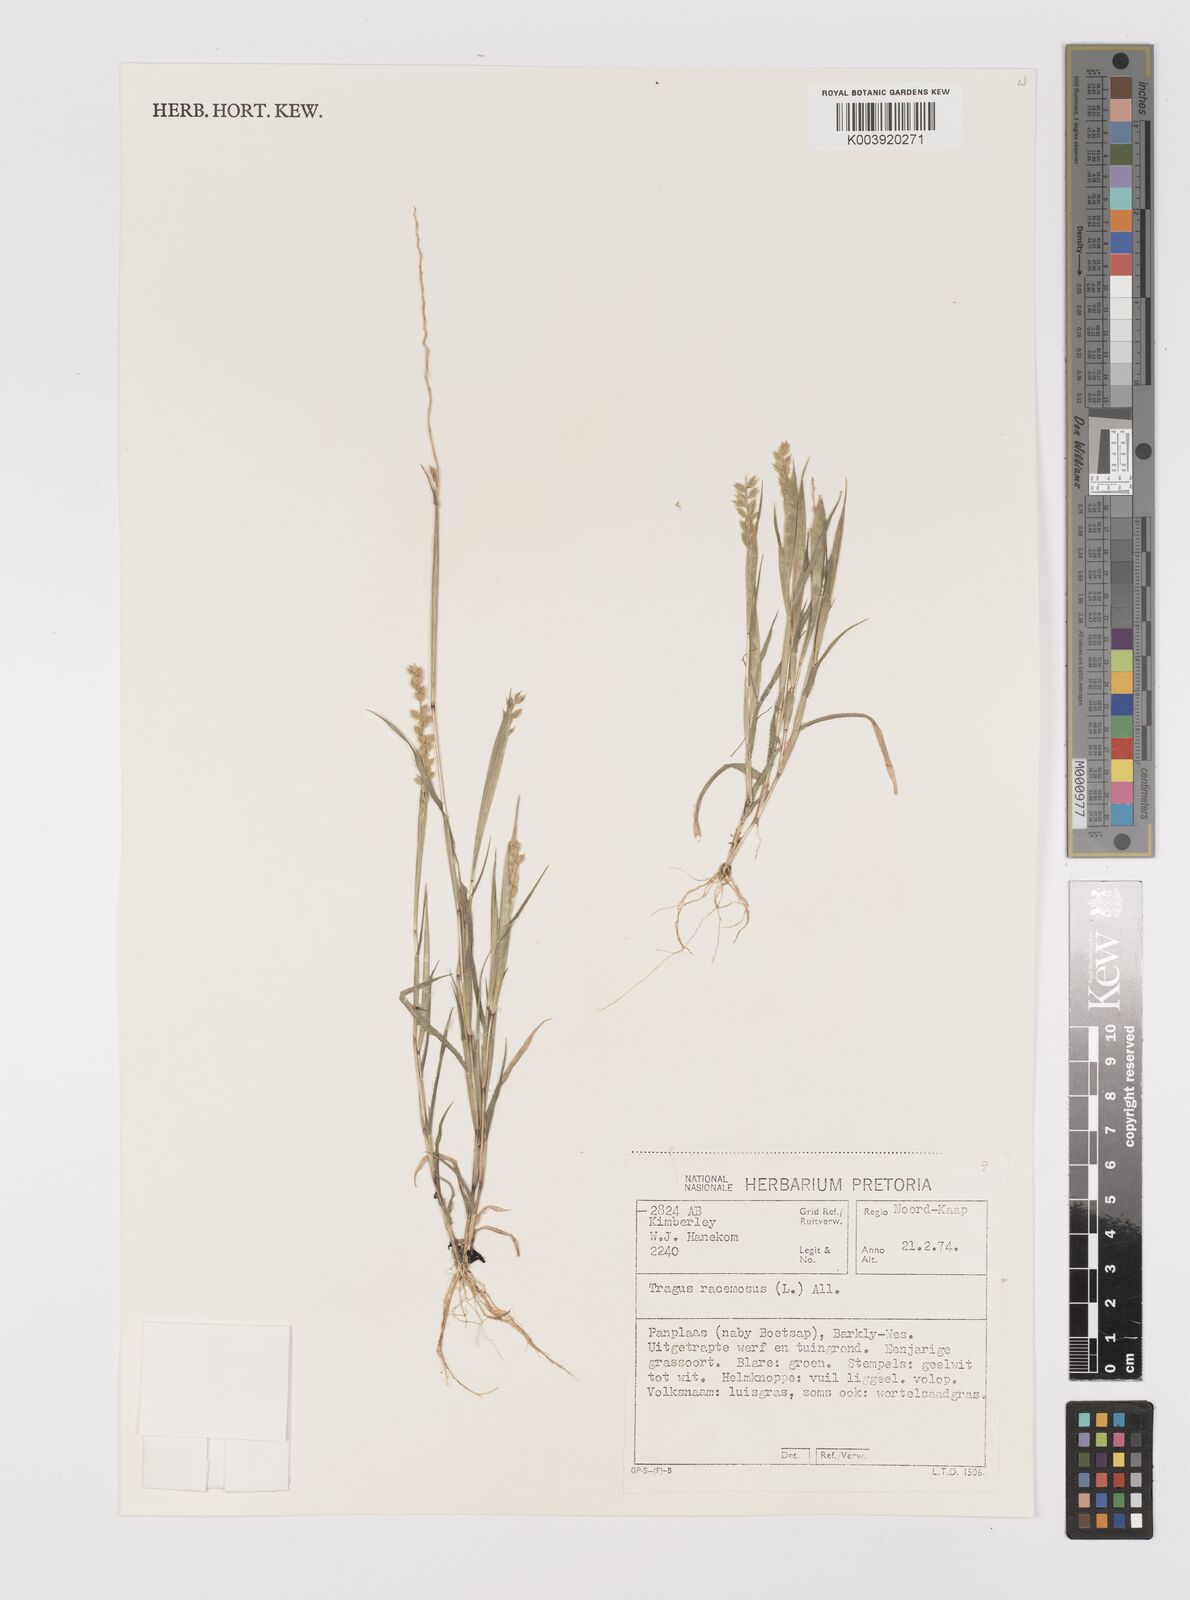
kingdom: Plantae
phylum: Tracheophyta
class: Liliopsida
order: Poales
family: Poaceae
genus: Tragus
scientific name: Tragus racemosus
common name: European bur-grass
